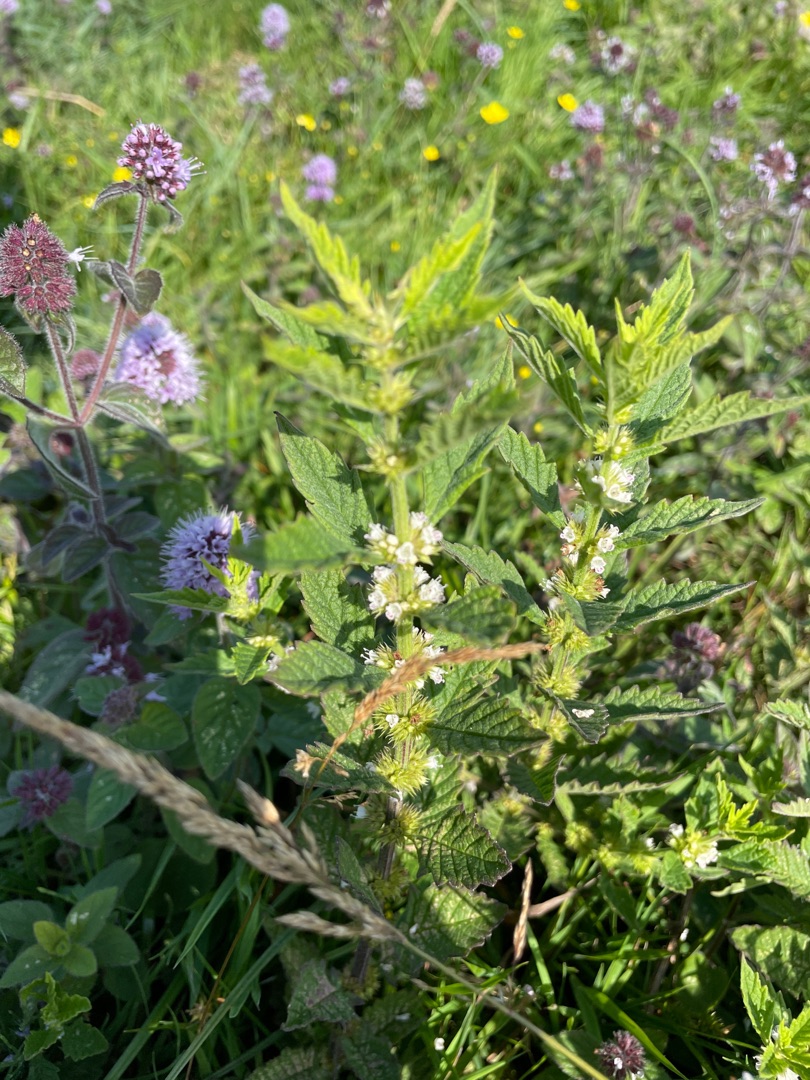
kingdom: Plantae
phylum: Tracheophyta
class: Magnoliopsida
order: Lamiales
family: Lamiaceae
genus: Lycopus
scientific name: Lycopus europaeus
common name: Sværtevæld
